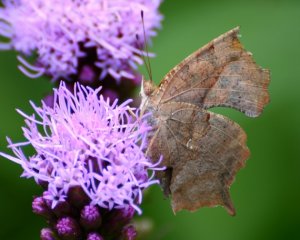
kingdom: Animalia
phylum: Arthropoda
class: Insecta
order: Lepidoptera
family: Nymphalidae
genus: Polygonia
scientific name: Polygonia interrogationis
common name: Question Mark
